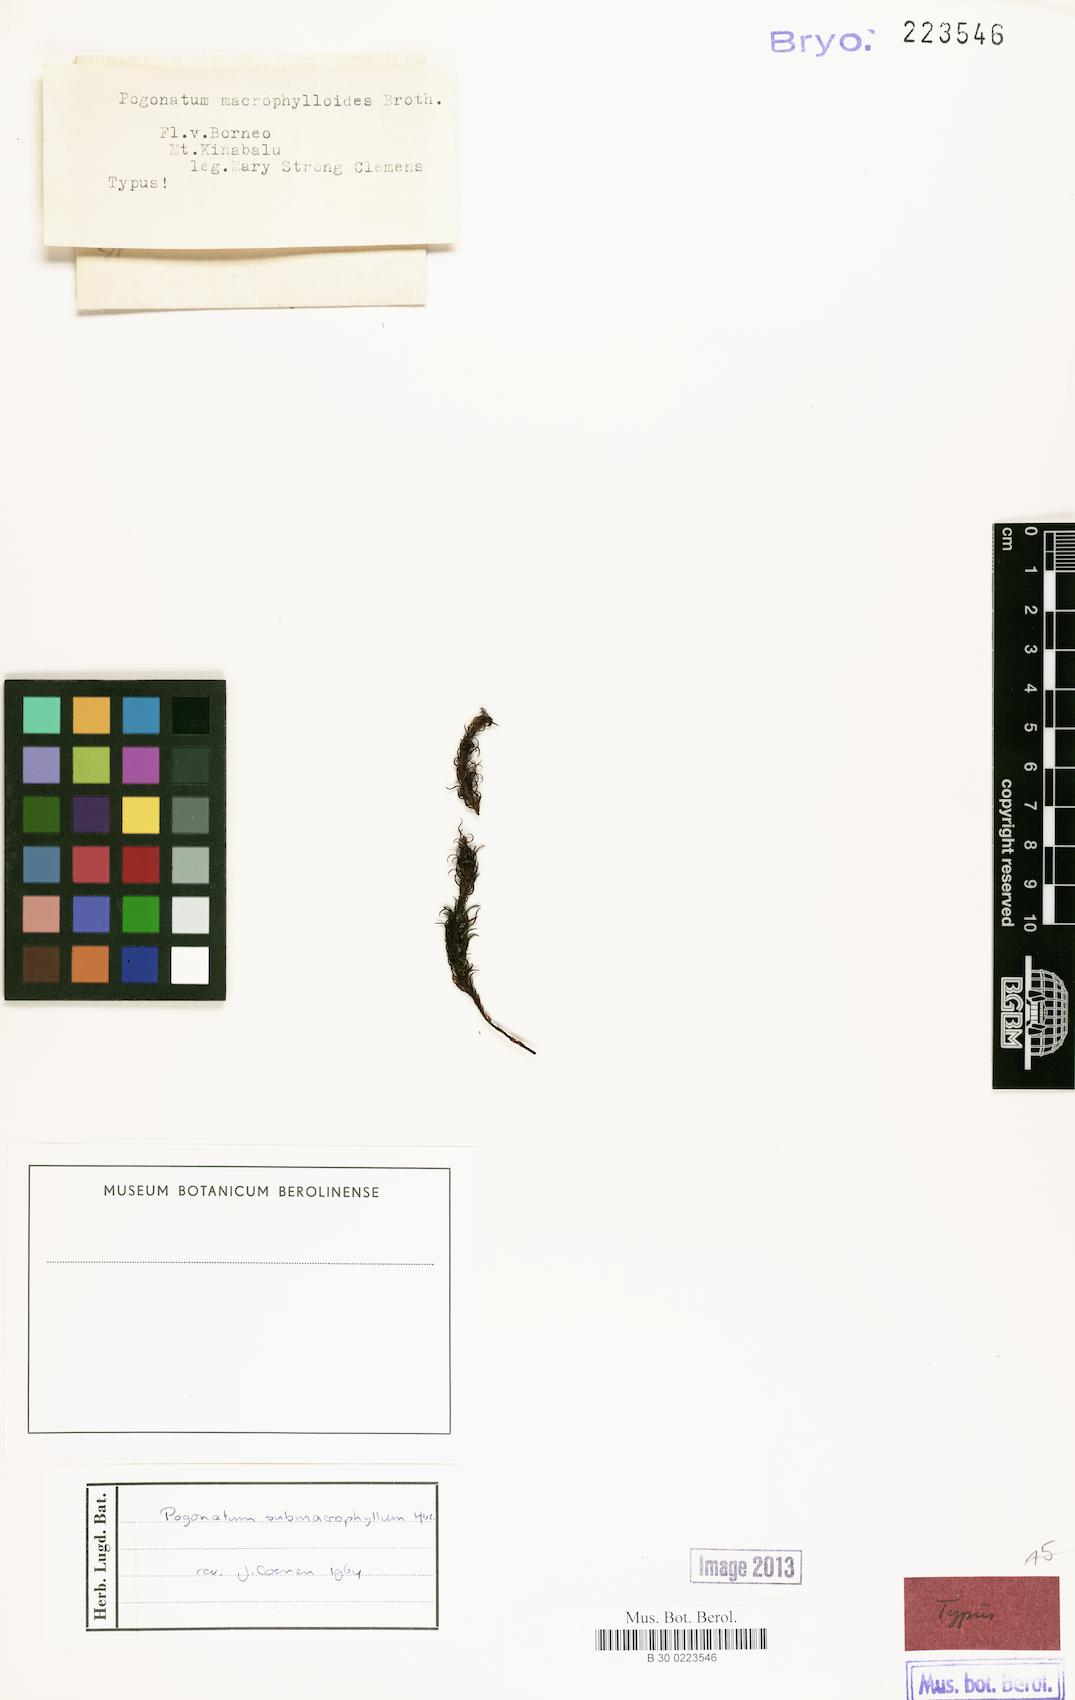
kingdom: Plantae
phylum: Bryophyta
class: Polytrichopsida
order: Polytrichales
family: Polytrichaceae
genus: Pogonatum
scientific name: Pogonatum cirratum
